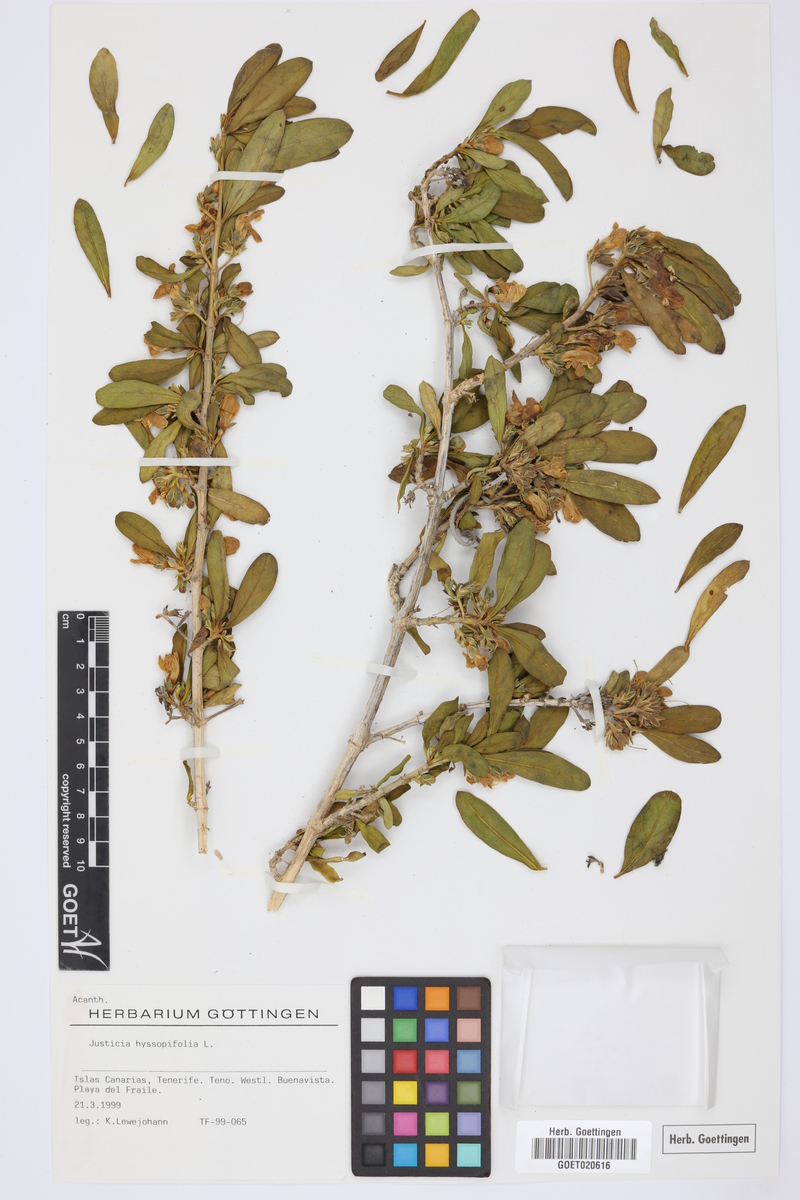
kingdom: Plantae
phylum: Tracheophyta
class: Magnoliopsida
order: Lamiales
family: Acanthaceae
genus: Justicia
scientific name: Justicia hyssopifolia
